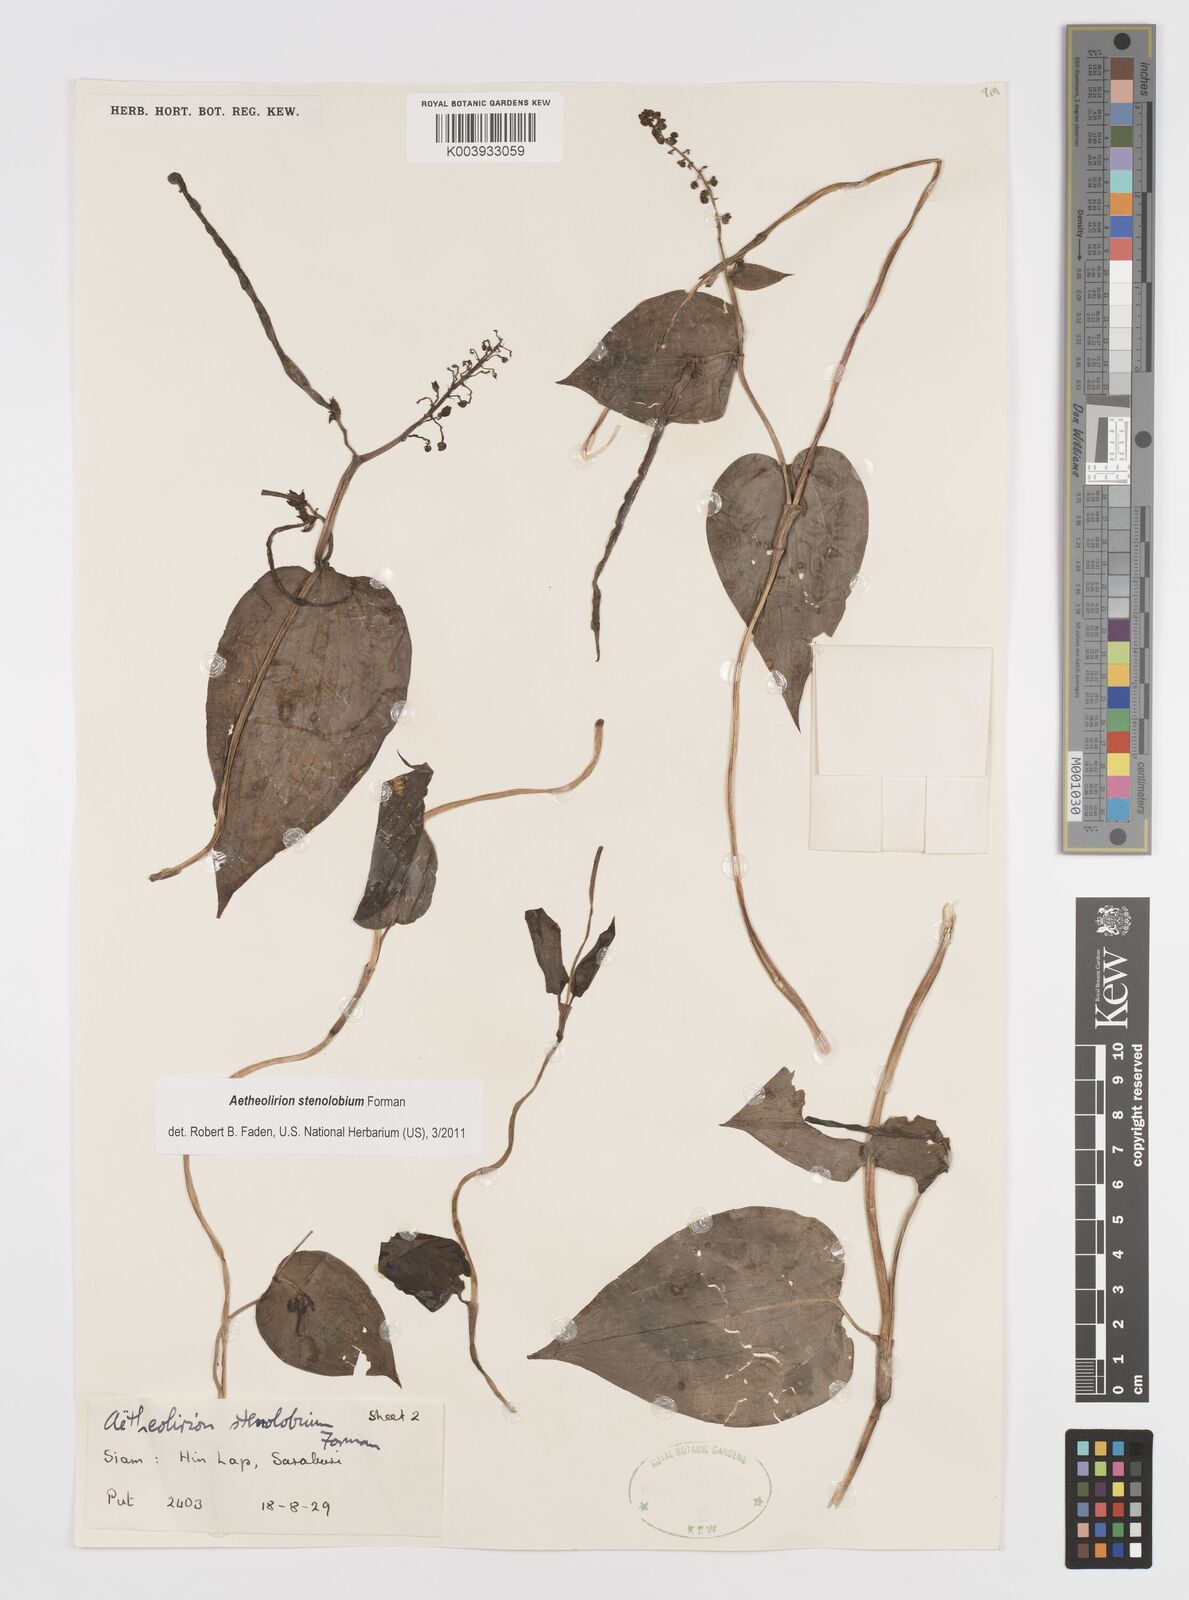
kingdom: Plantae
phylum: Tracheophyta
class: Liliopsida
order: Commelinales
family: Commelinaceae
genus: Aetheolirion
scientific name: Aetheolirion stenolobium
